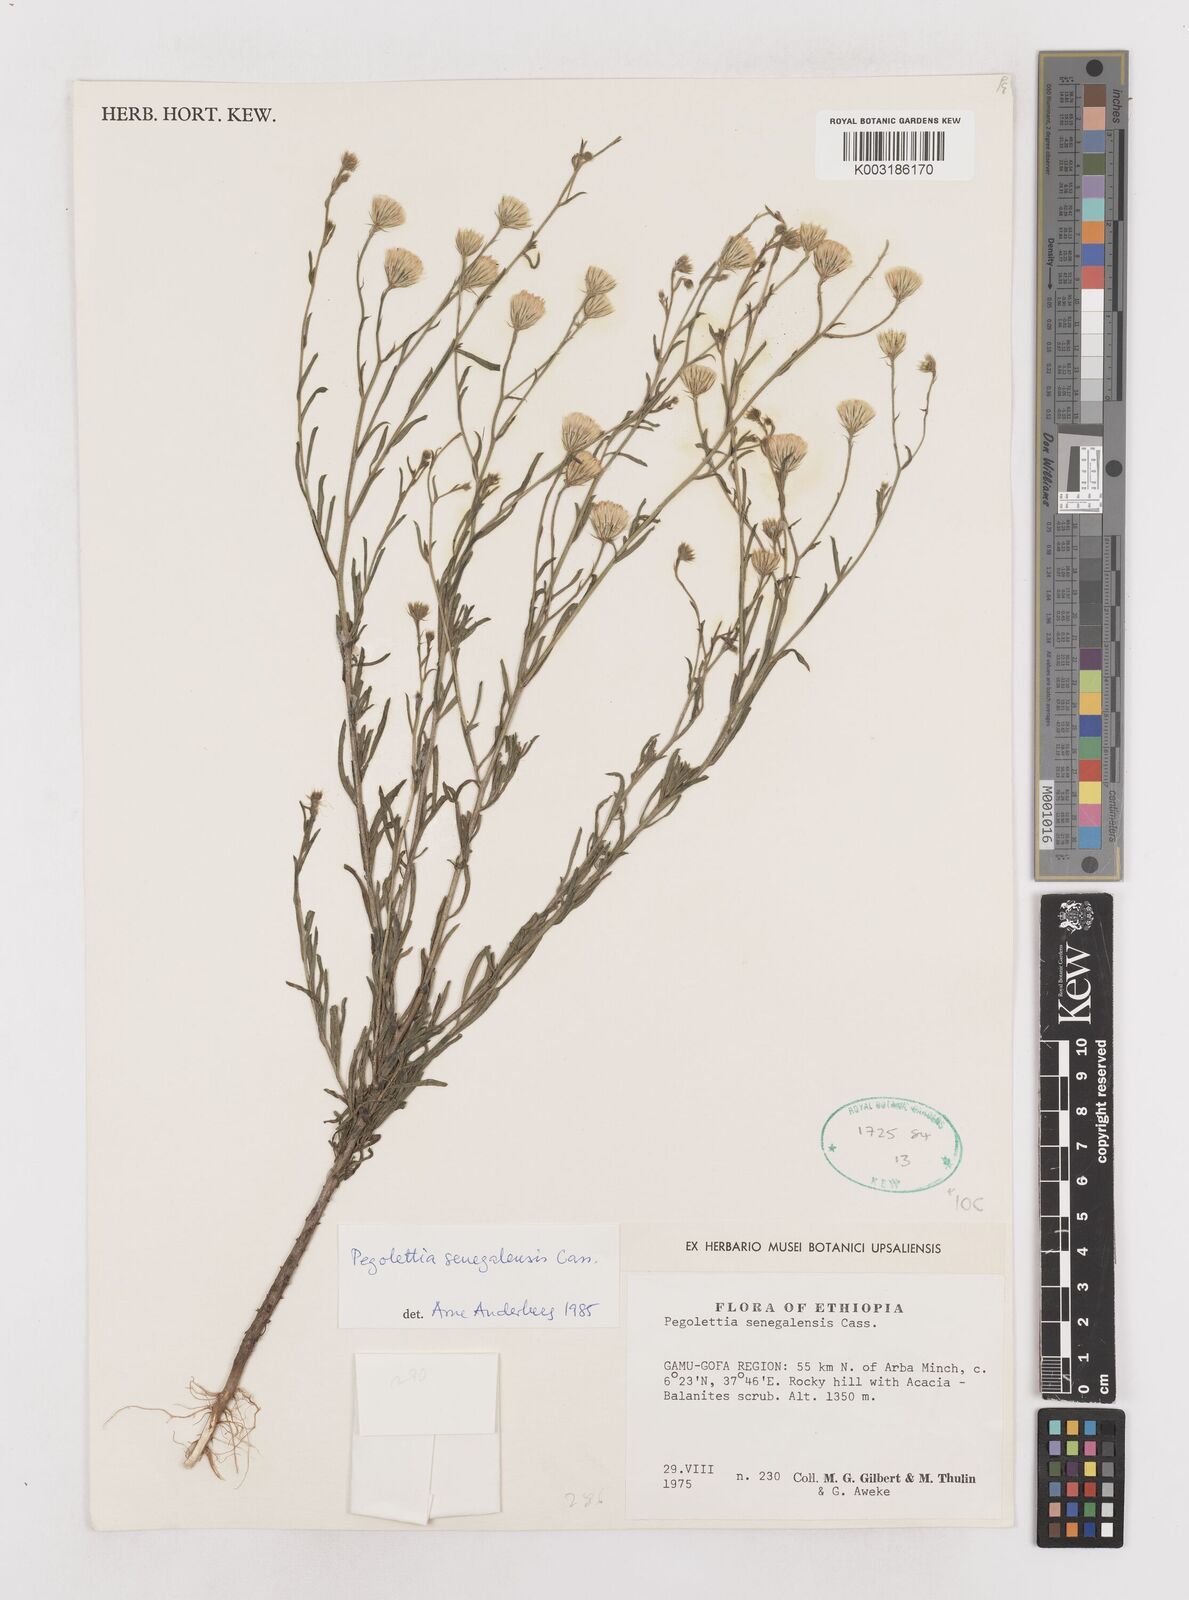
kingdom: Plantae
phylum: Tracheophyta
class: Magnoliopsida
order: Asterales
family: Asteraceae
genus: Pegolettia
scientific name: Pegolettia senegalensis
